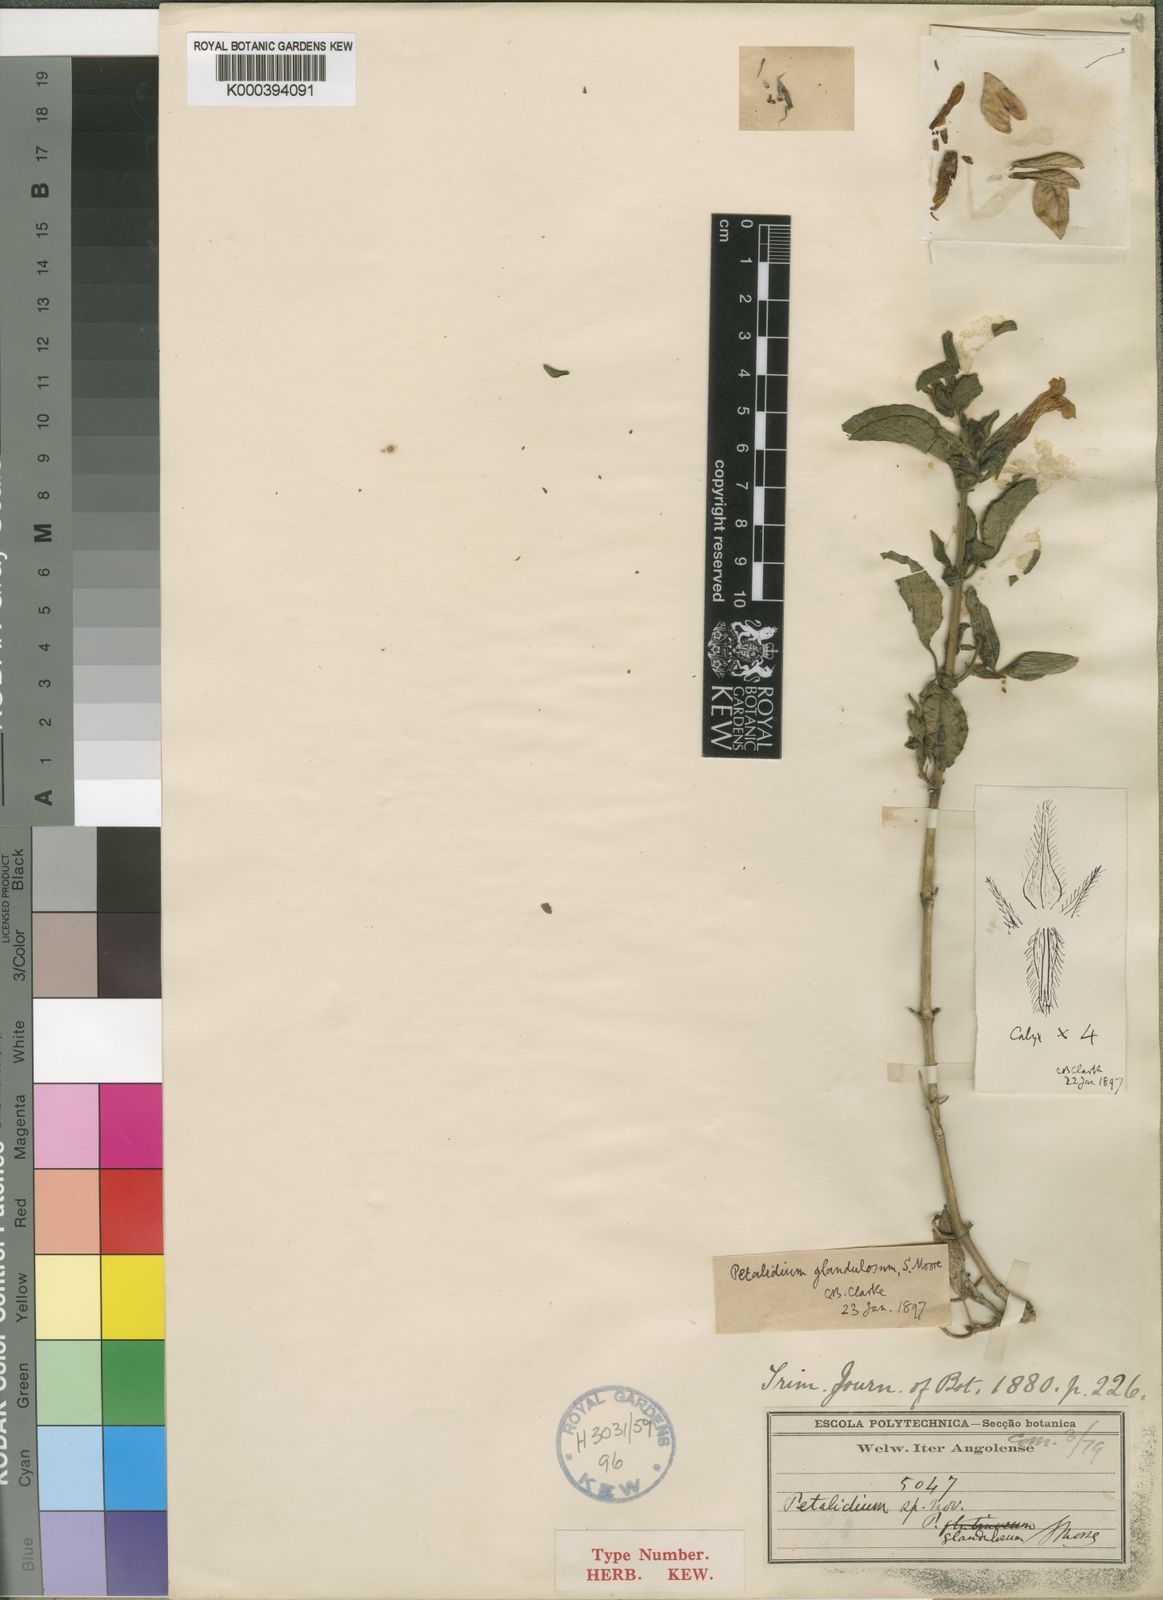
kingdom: Plantae
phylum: Tracheophyta
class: Magnoliopsida
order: Lamiales
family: Acanthaceae
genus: Petalidium
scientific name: Petalidium glandulosum
